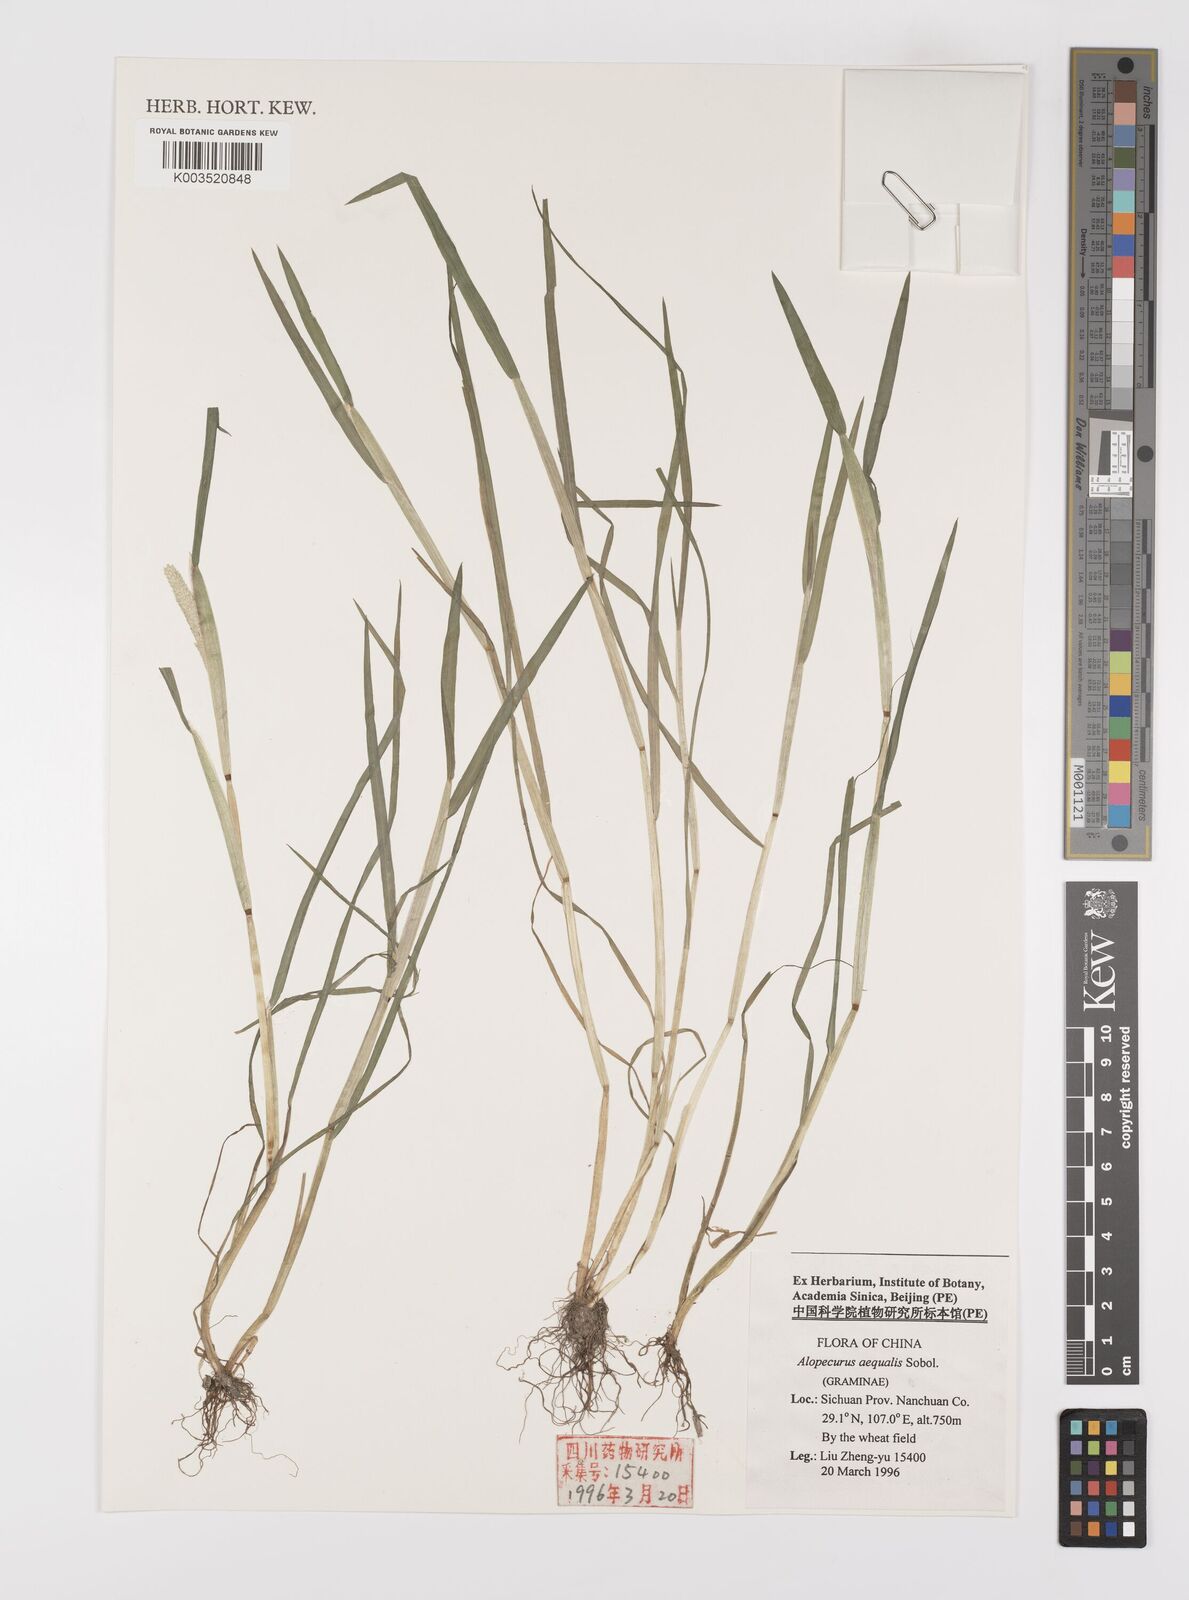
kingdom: Plantae
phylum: Tracheophyta
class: Liliopsida
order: Poales
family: Poaceae
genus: Alopecurus
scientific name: Alopecurus aequalis
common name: Orange foxtail
